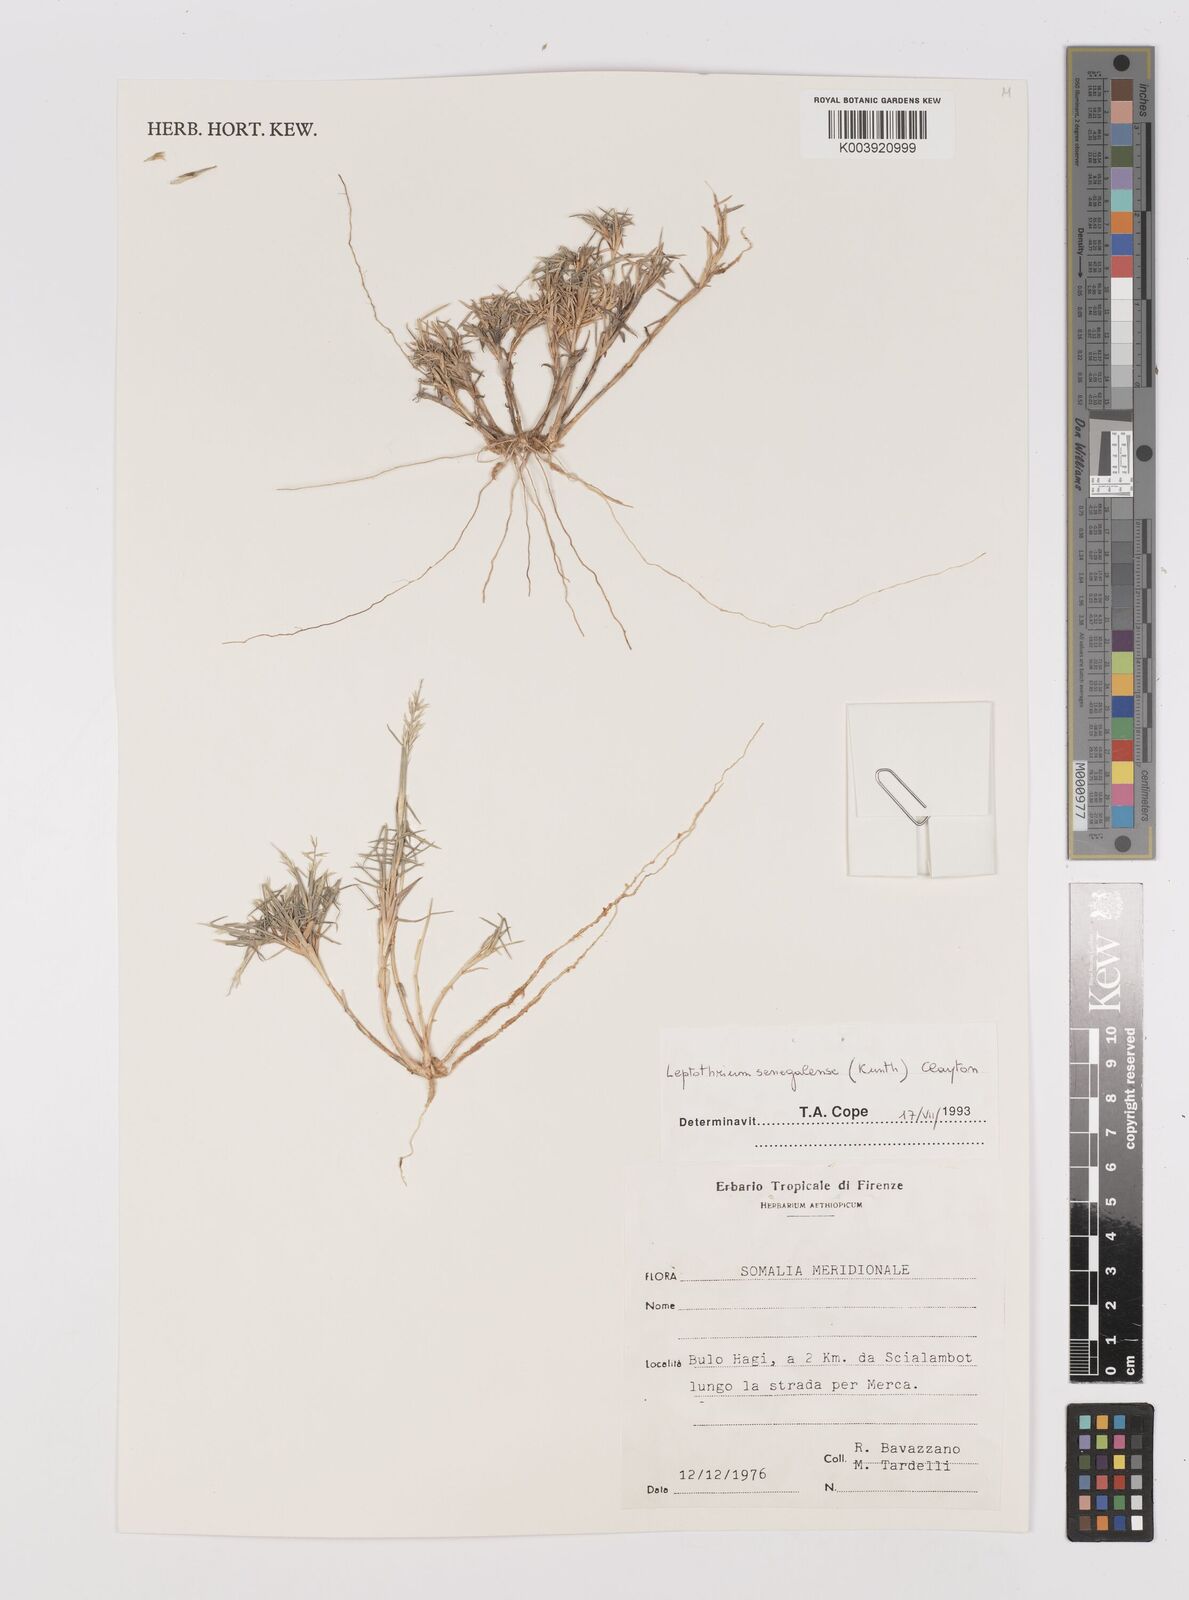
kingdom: Plantae
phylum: Tracheophyta
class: Liliopsida
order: Poales
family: Poaceae
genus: Leptothrium
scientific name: Leptothrium senegalense
